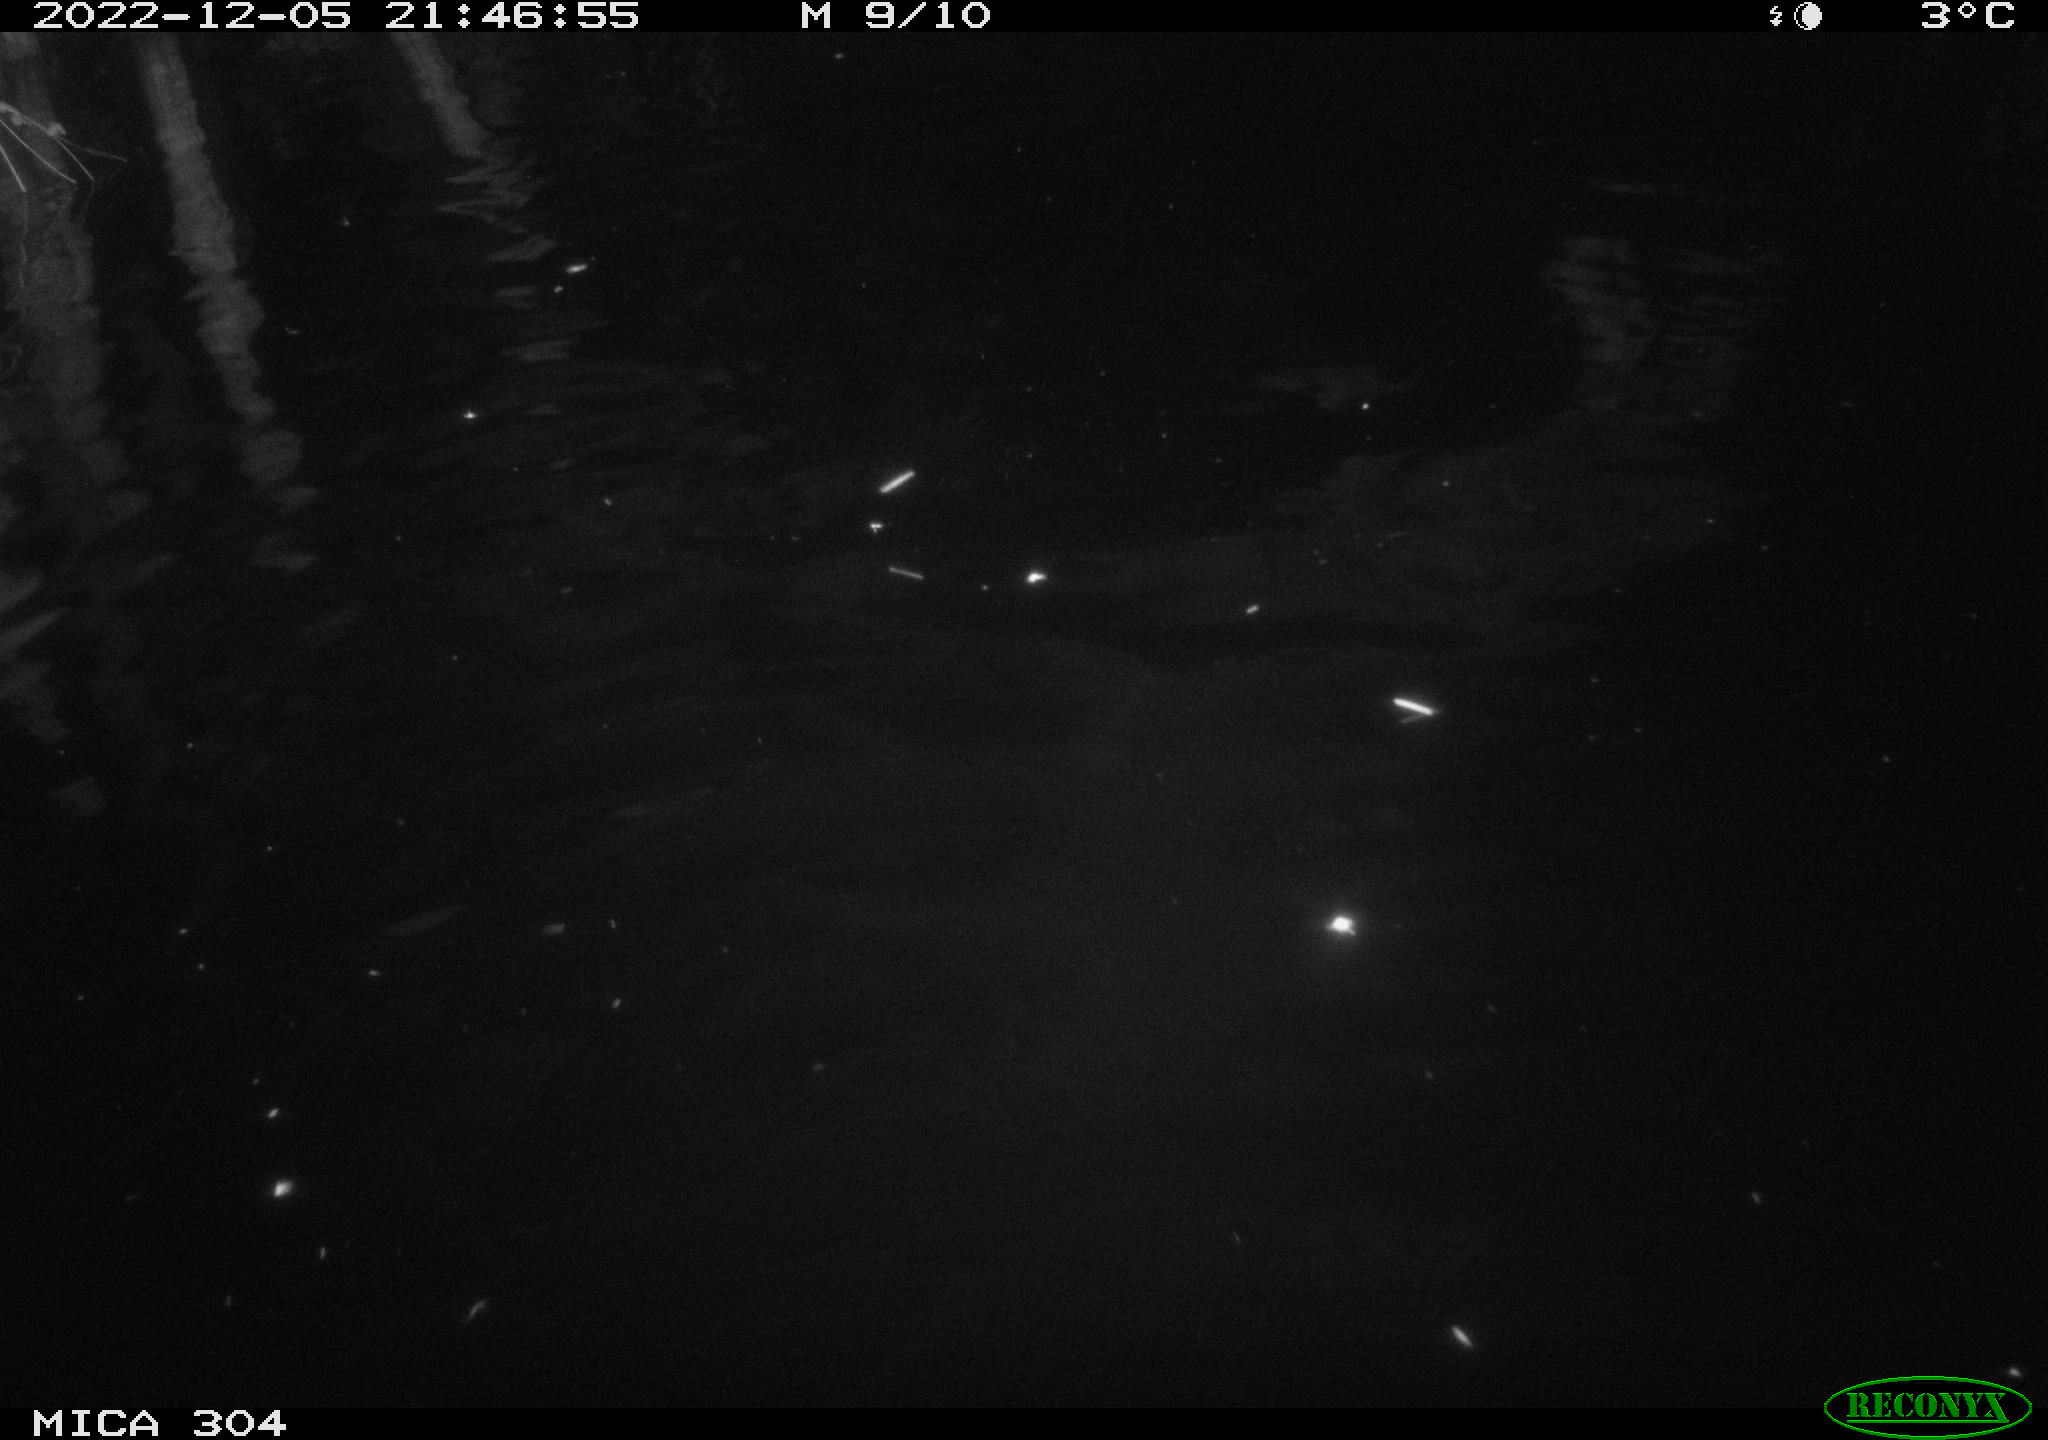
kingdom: Animalia
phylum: Chordata
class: Mammalia
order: Rodentia
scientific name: Rodentia
